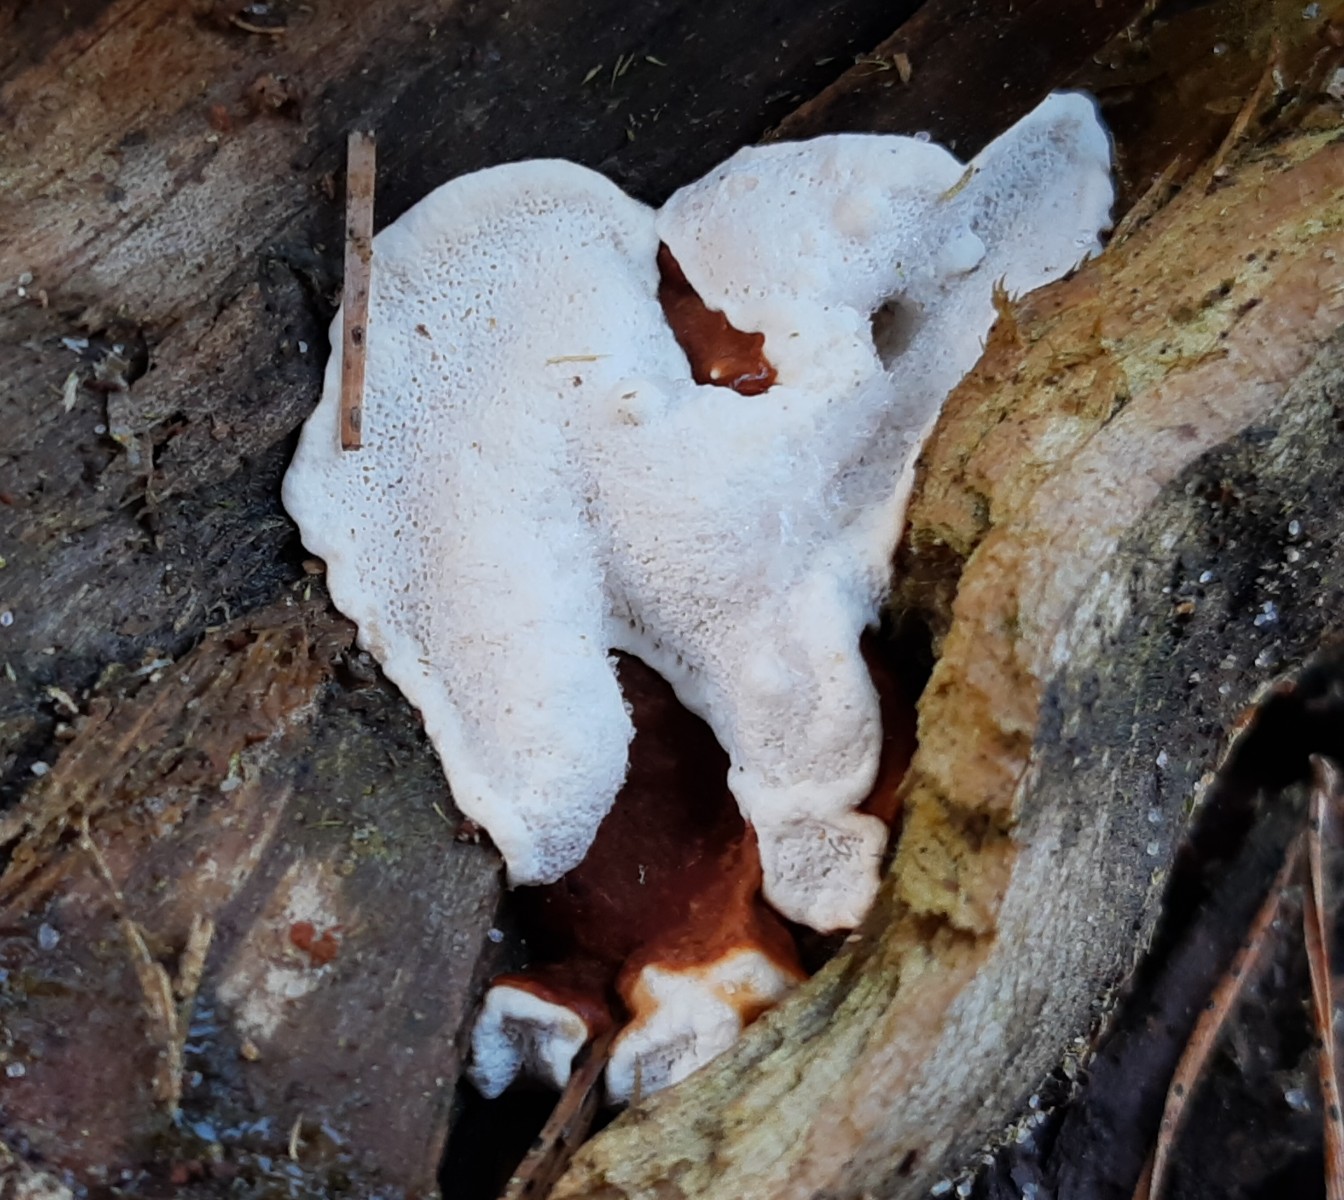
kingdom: Fungi
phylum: Basidiomycota
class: Agaricomycetes
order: Russulales
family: Bondarzewiaceae
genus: Heterobasidion
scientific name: Heterobasidion annosum
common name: almindelig rodfordærver
